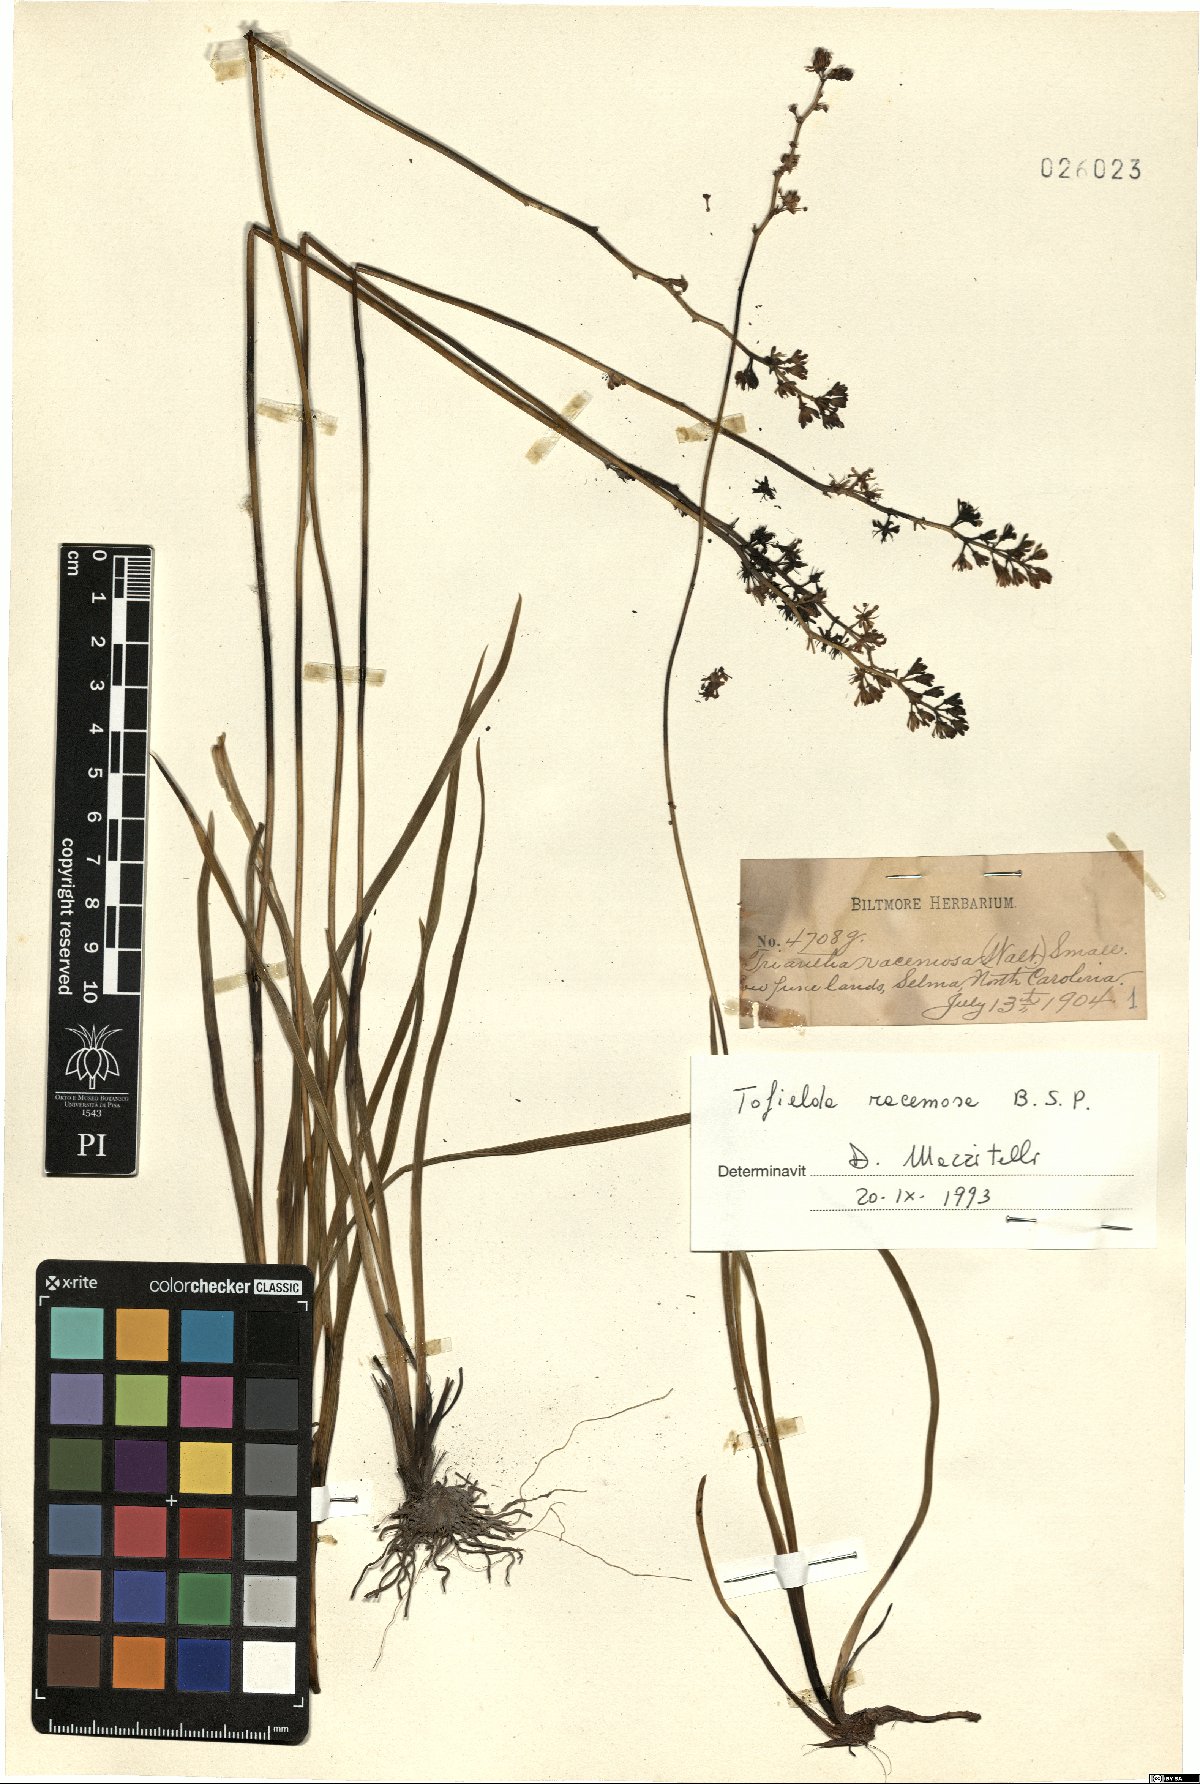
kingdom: Plantae
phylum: Tracheophyta
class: Liliopsida
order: Alismatales
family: Tofieldiaceae
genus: Triantha
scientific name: Triantha racemosa
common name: Coastal false asphodel
